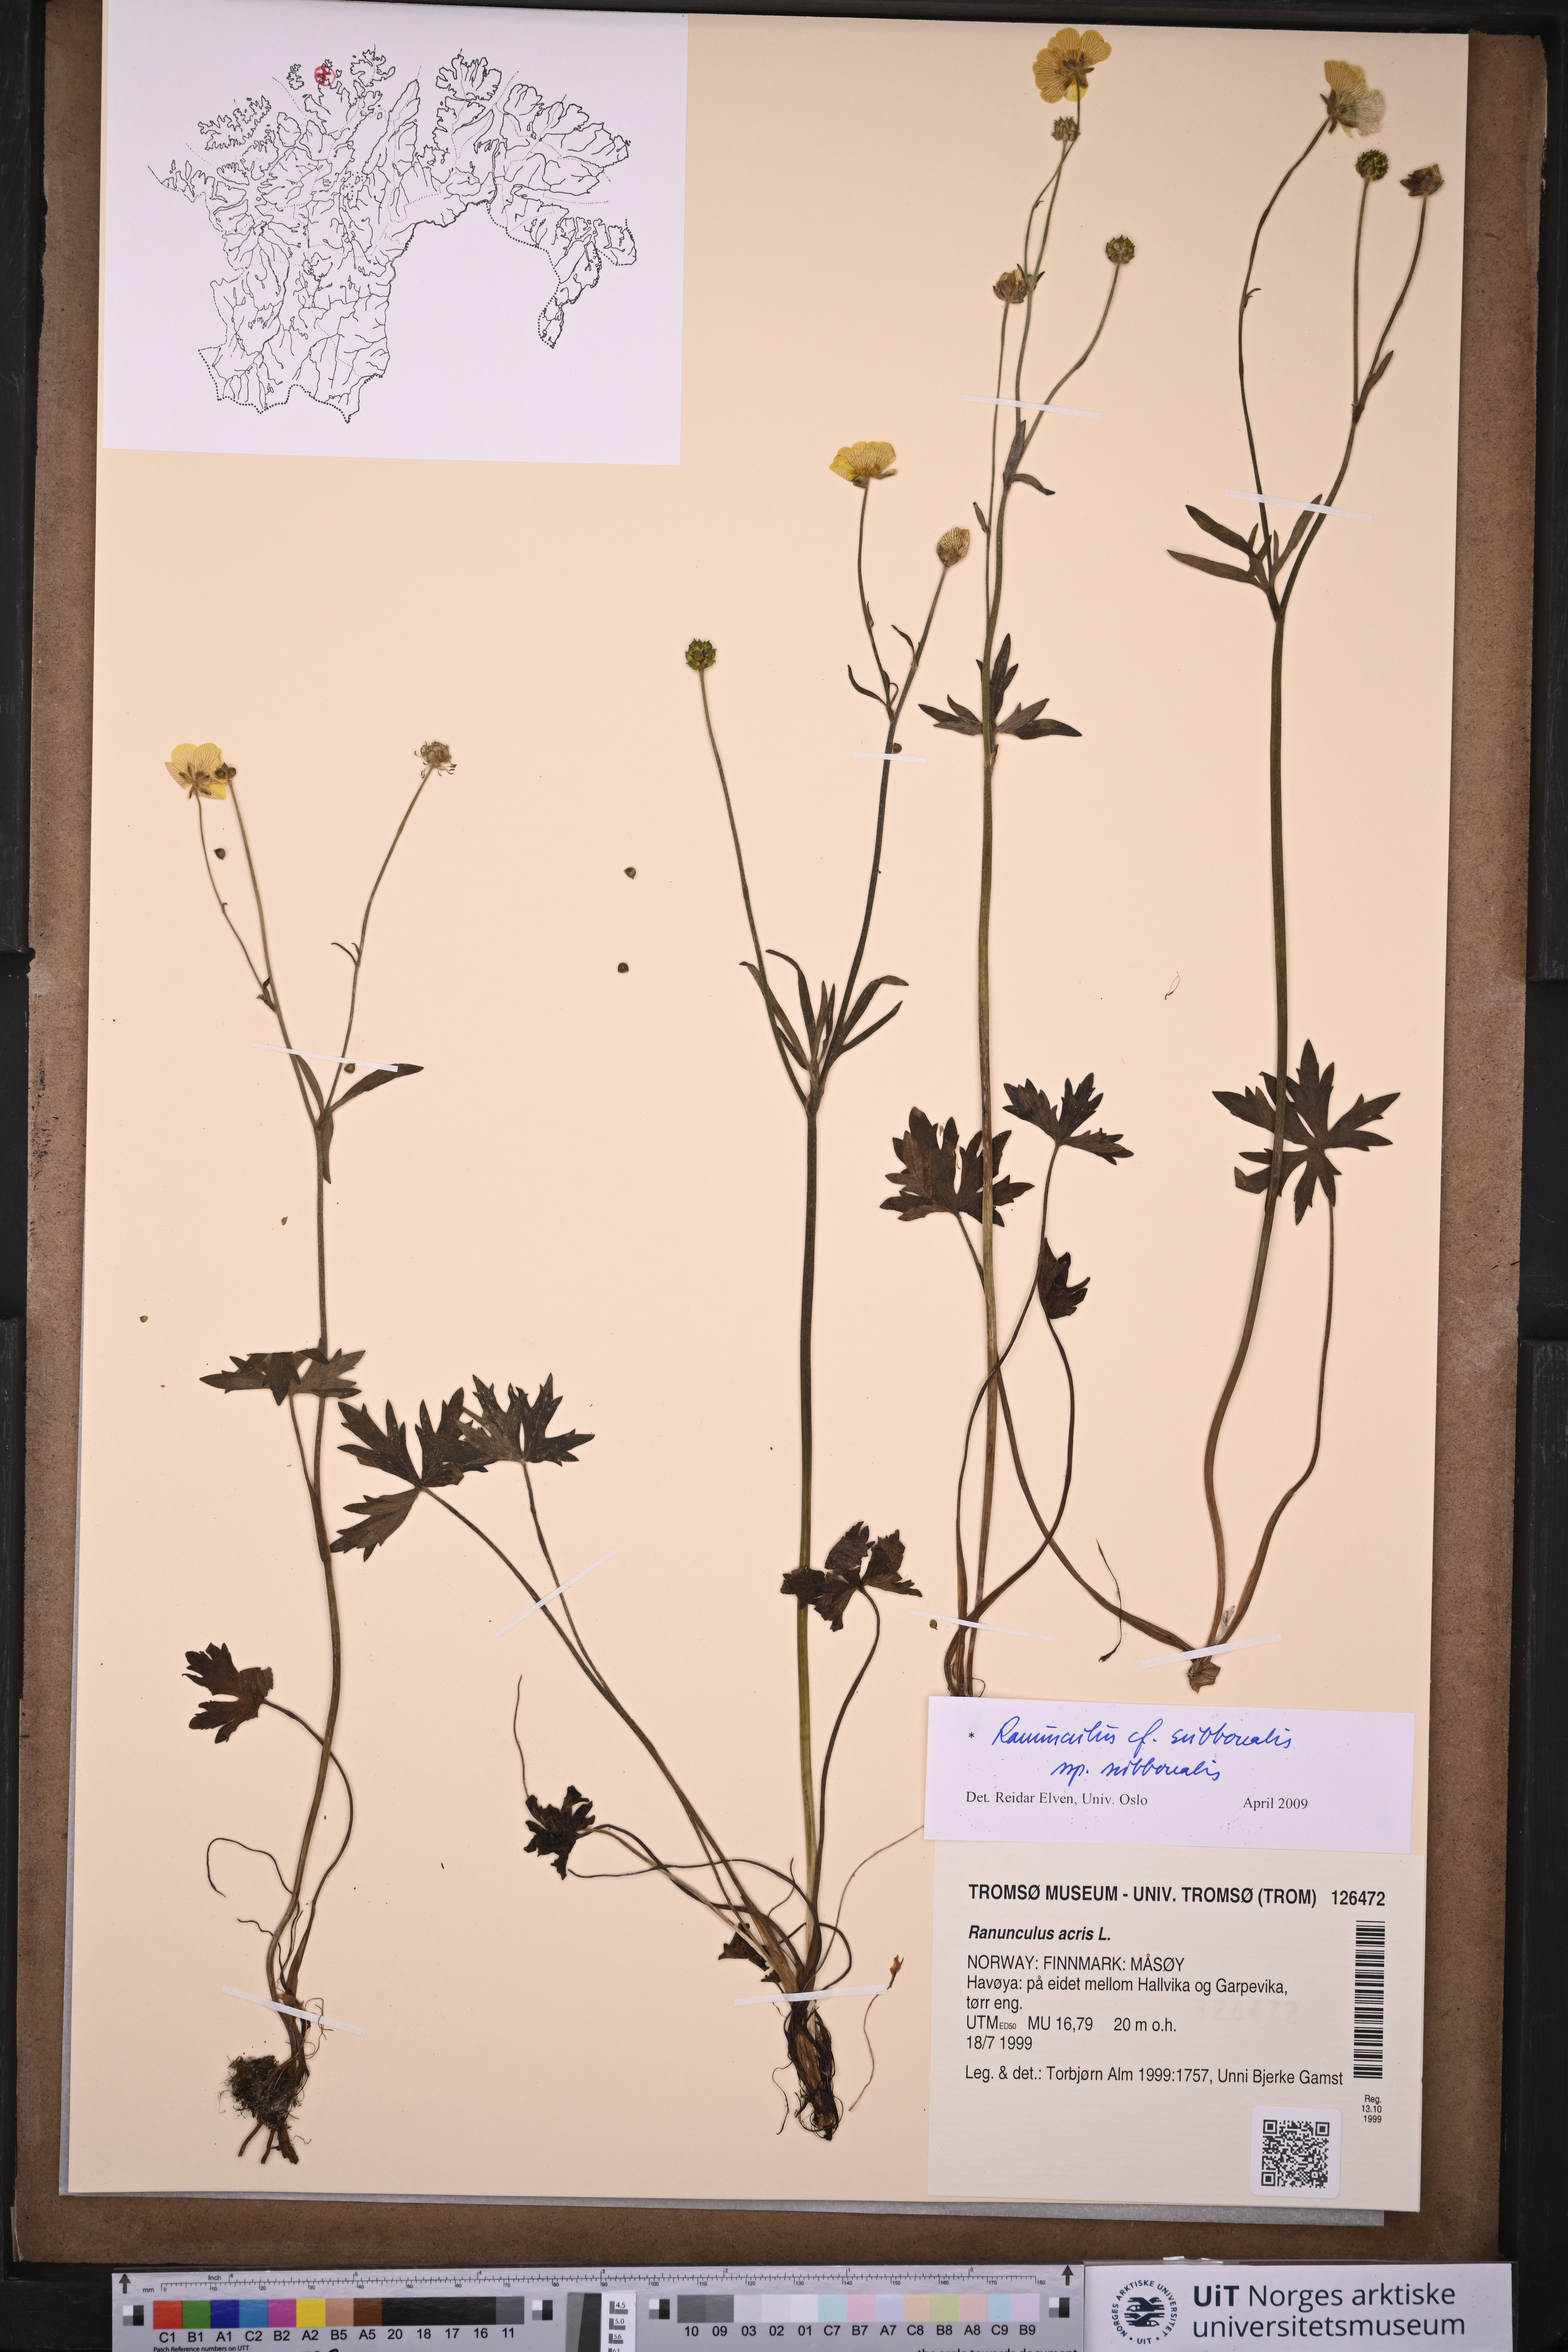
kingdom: Plantae
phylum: Tracheophyta
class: Magnoliopsida
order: Ranunculales
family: Ranunculaceae
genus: Ranunculus
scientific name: Ranunculus propinquus
